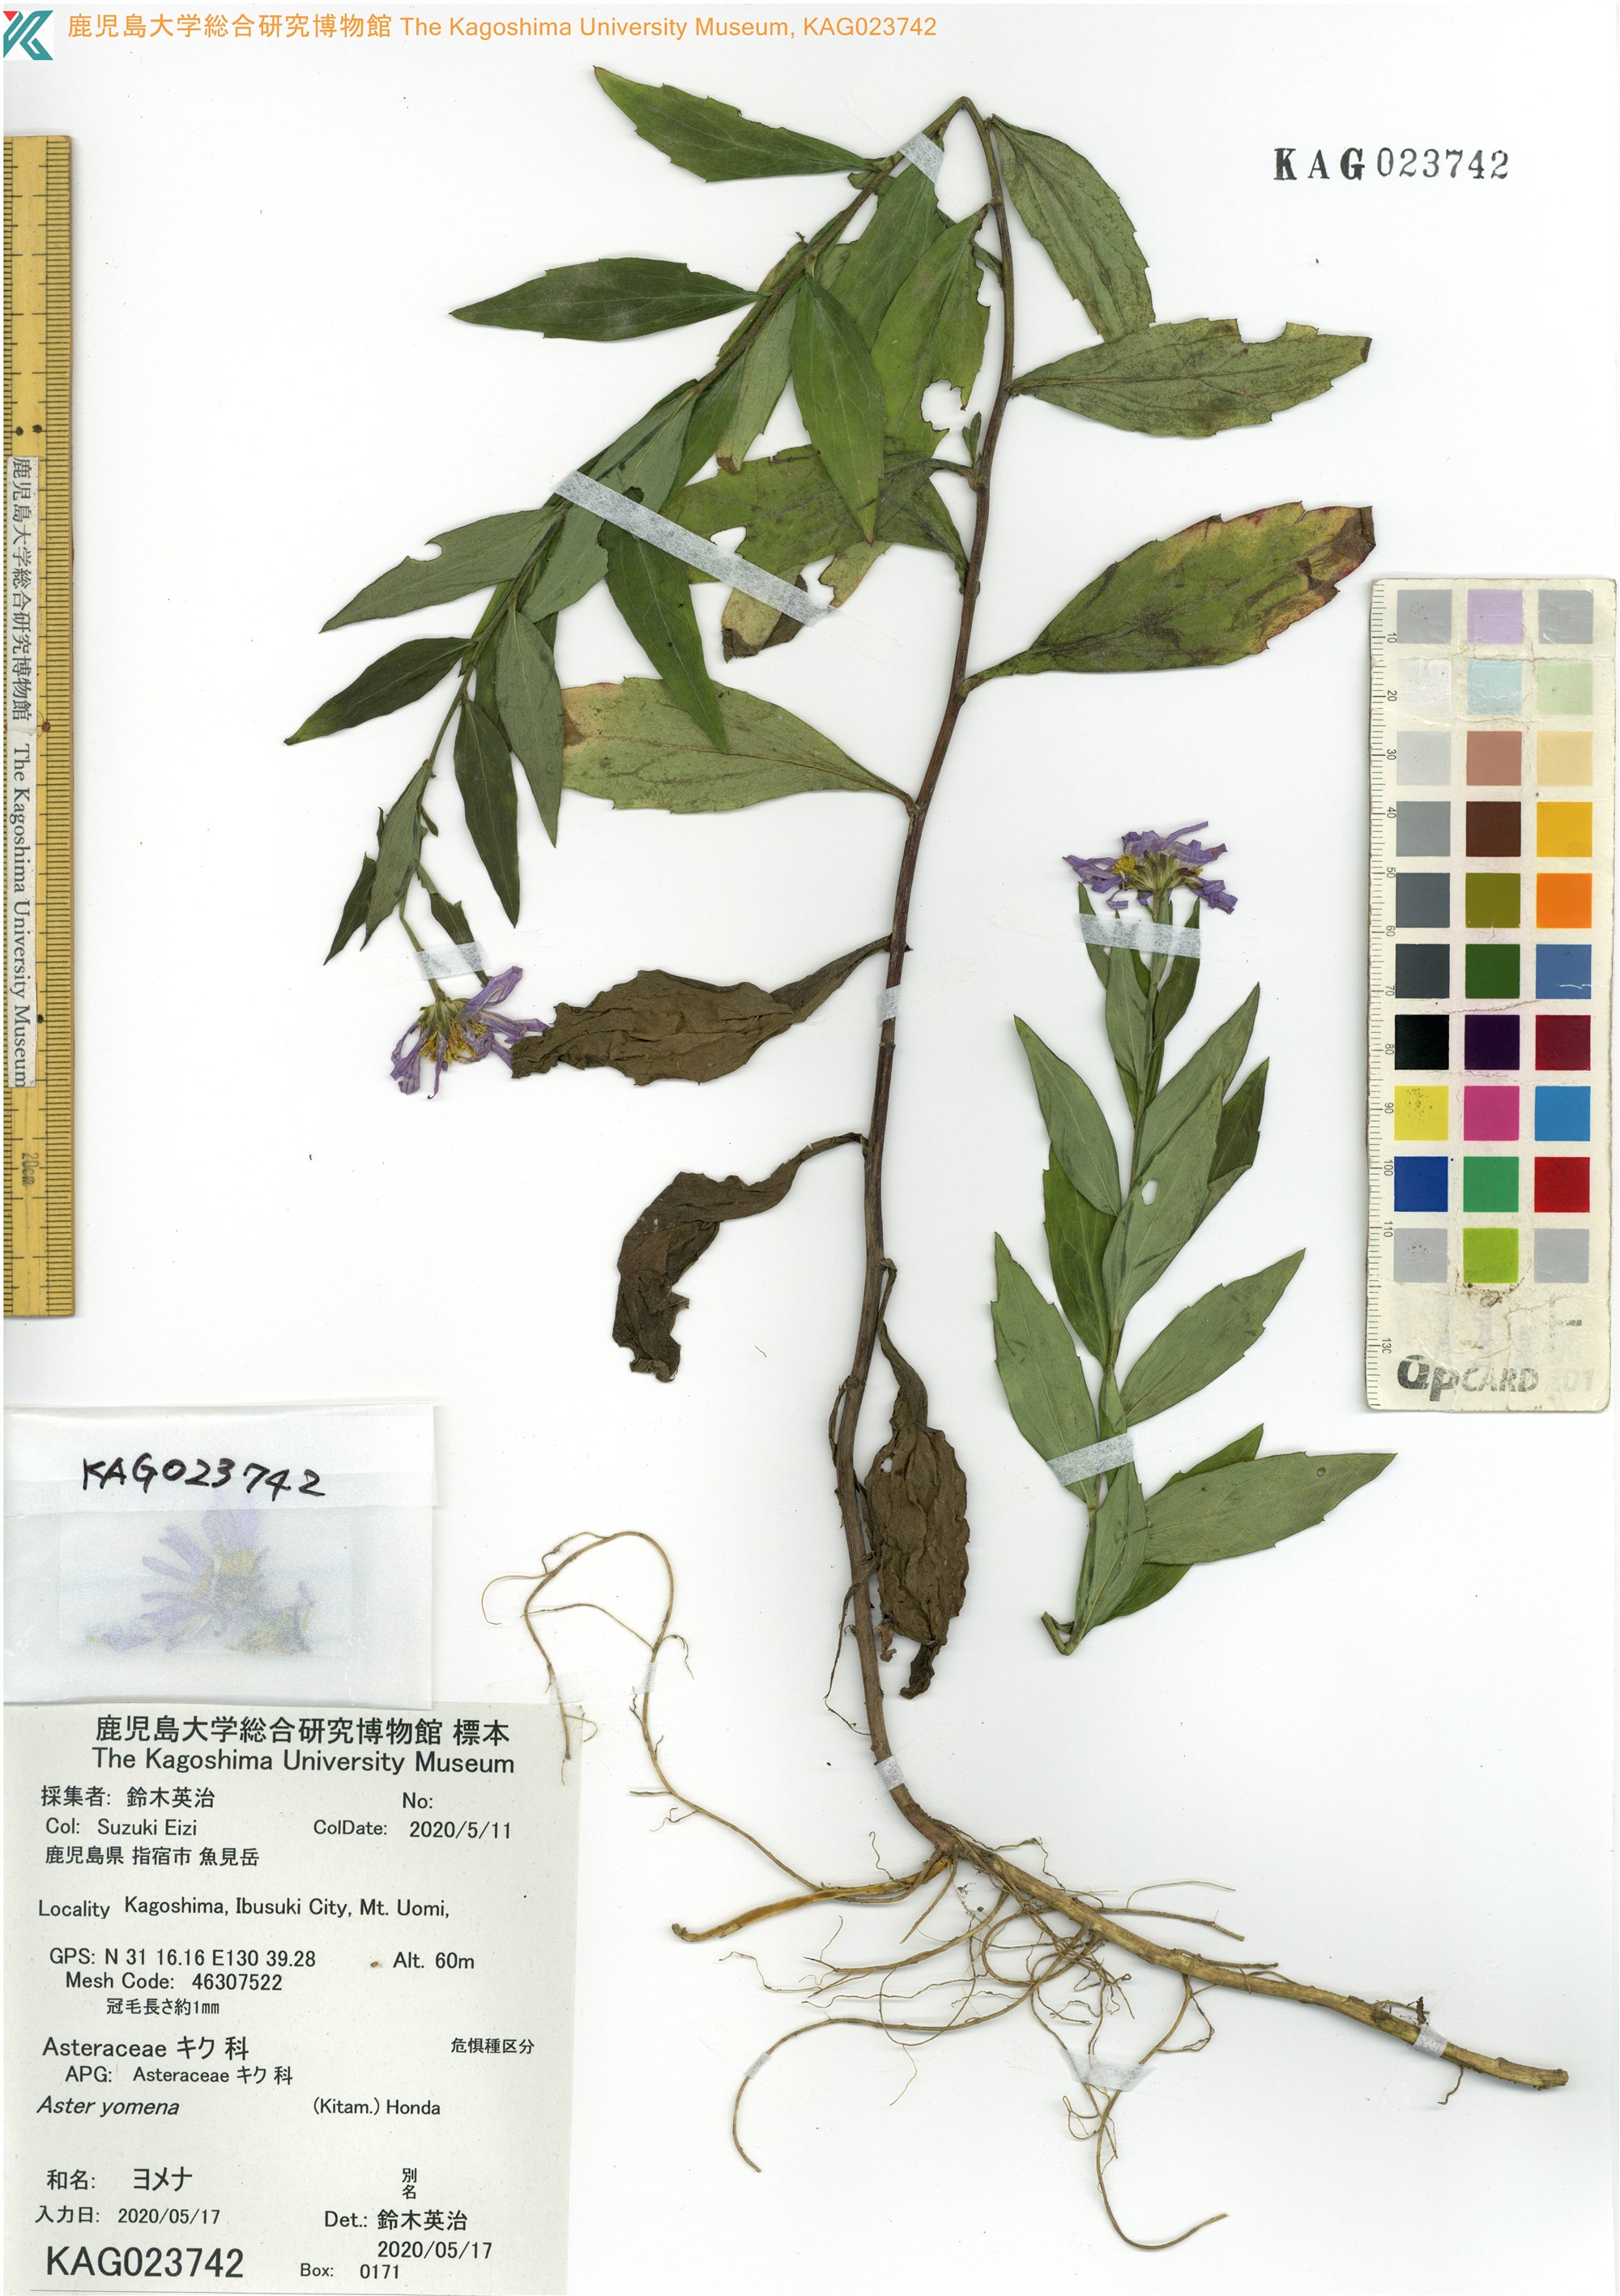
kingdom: Plantae
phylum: Tracheophyta
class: Magnoliopsida
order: Asterales
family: Asteraceae
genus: Kalimeris
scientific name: Kalimeris indica
